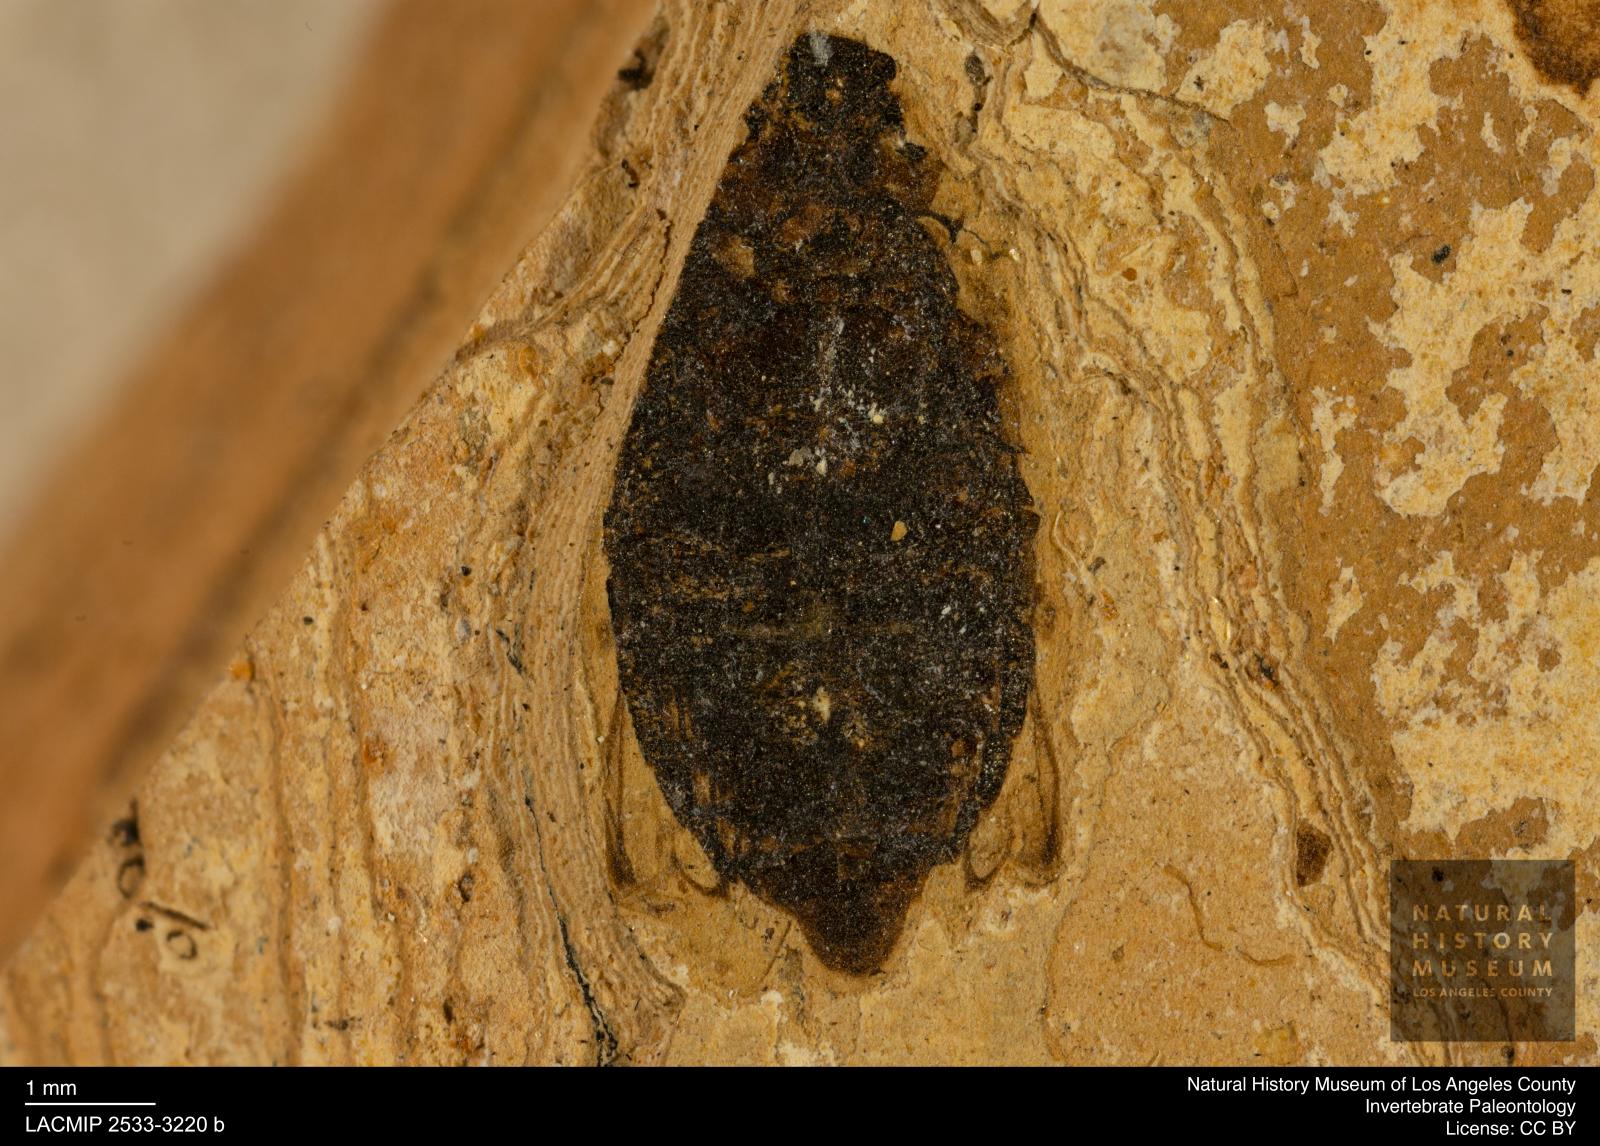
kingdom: Animalia
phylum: Arthropoda
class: Insecta
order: Coleoptera
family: Hydrophilidae
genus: Berosus
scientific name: Berosus morticinus
